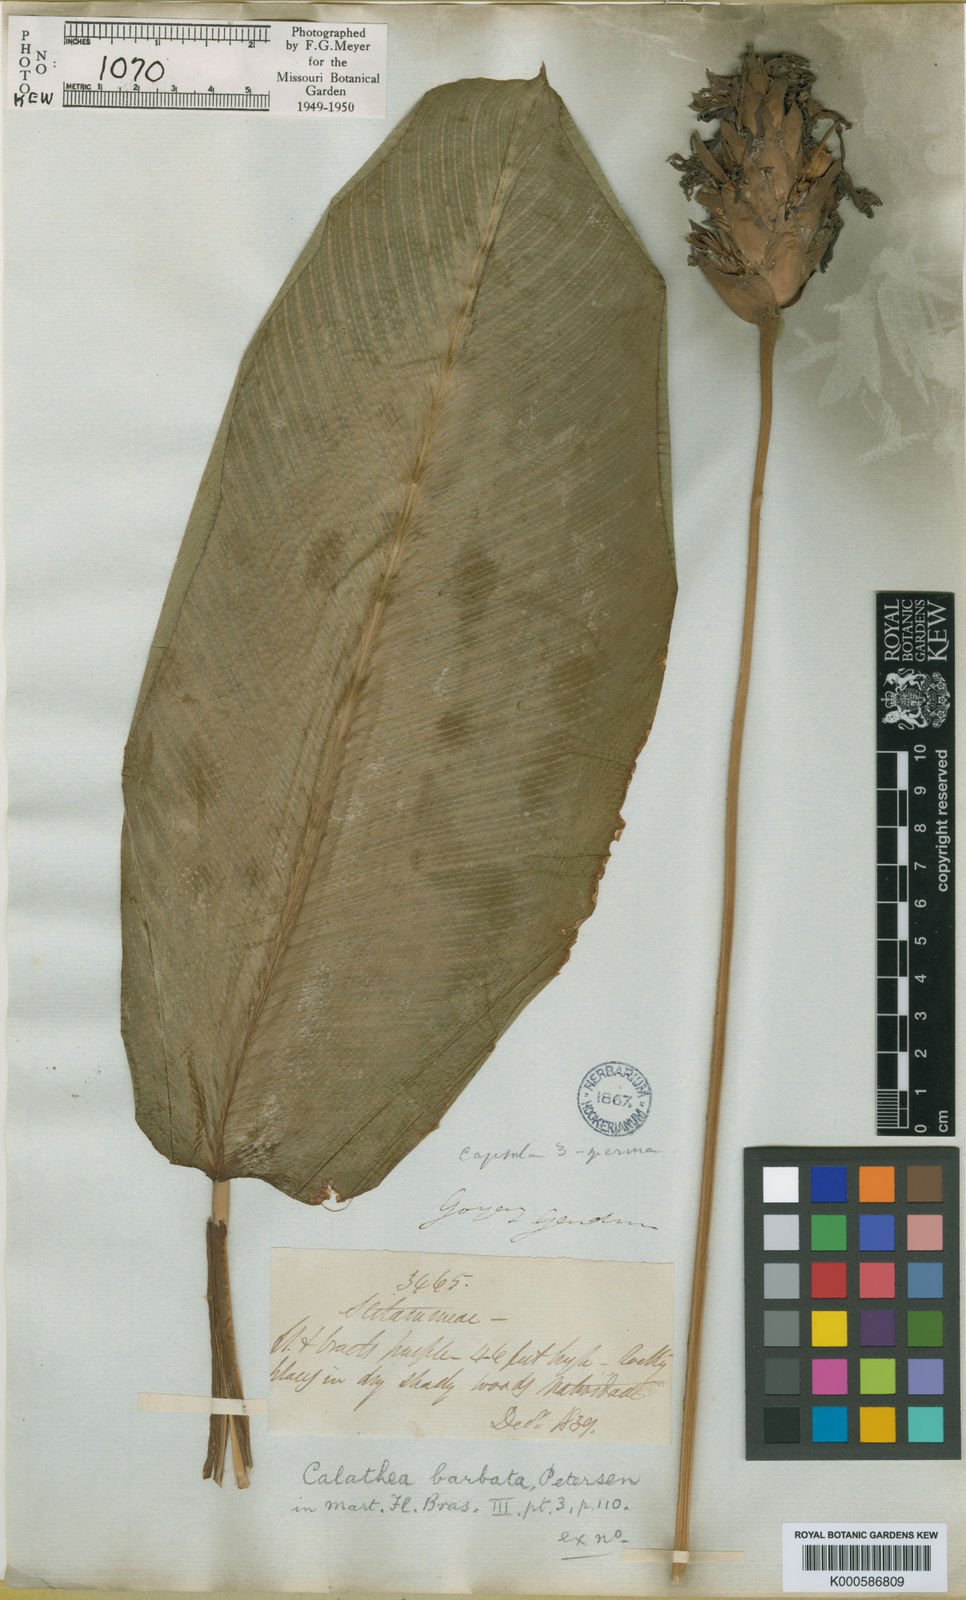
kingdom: Plantae
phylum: Tracheophyta
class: Liliopsida
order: Zingiberales
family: Marantaceae
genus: Goeppertia
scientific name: Goeppertia barbata
